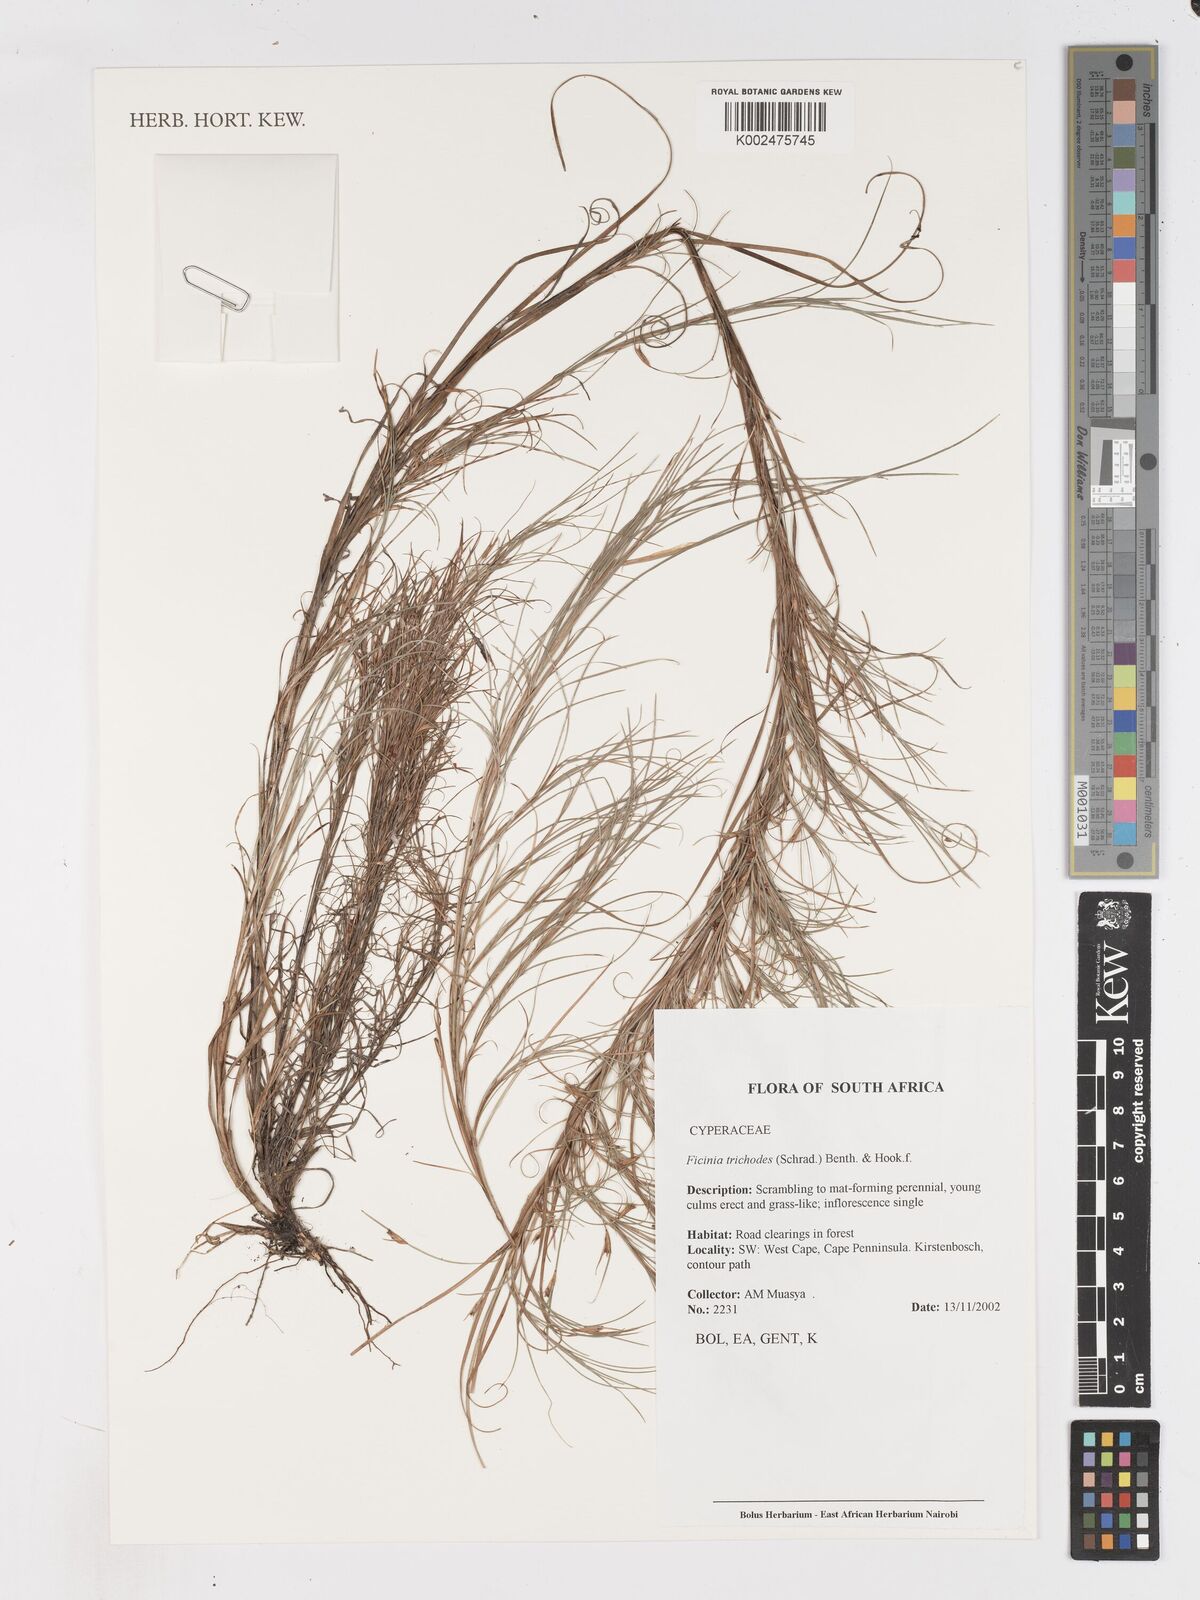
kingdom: Plantae
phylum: Tracheophyta
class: Liliopsida
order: Poales
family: Cyperaceae
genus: Ficinia
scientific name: Ficinia trichodes
